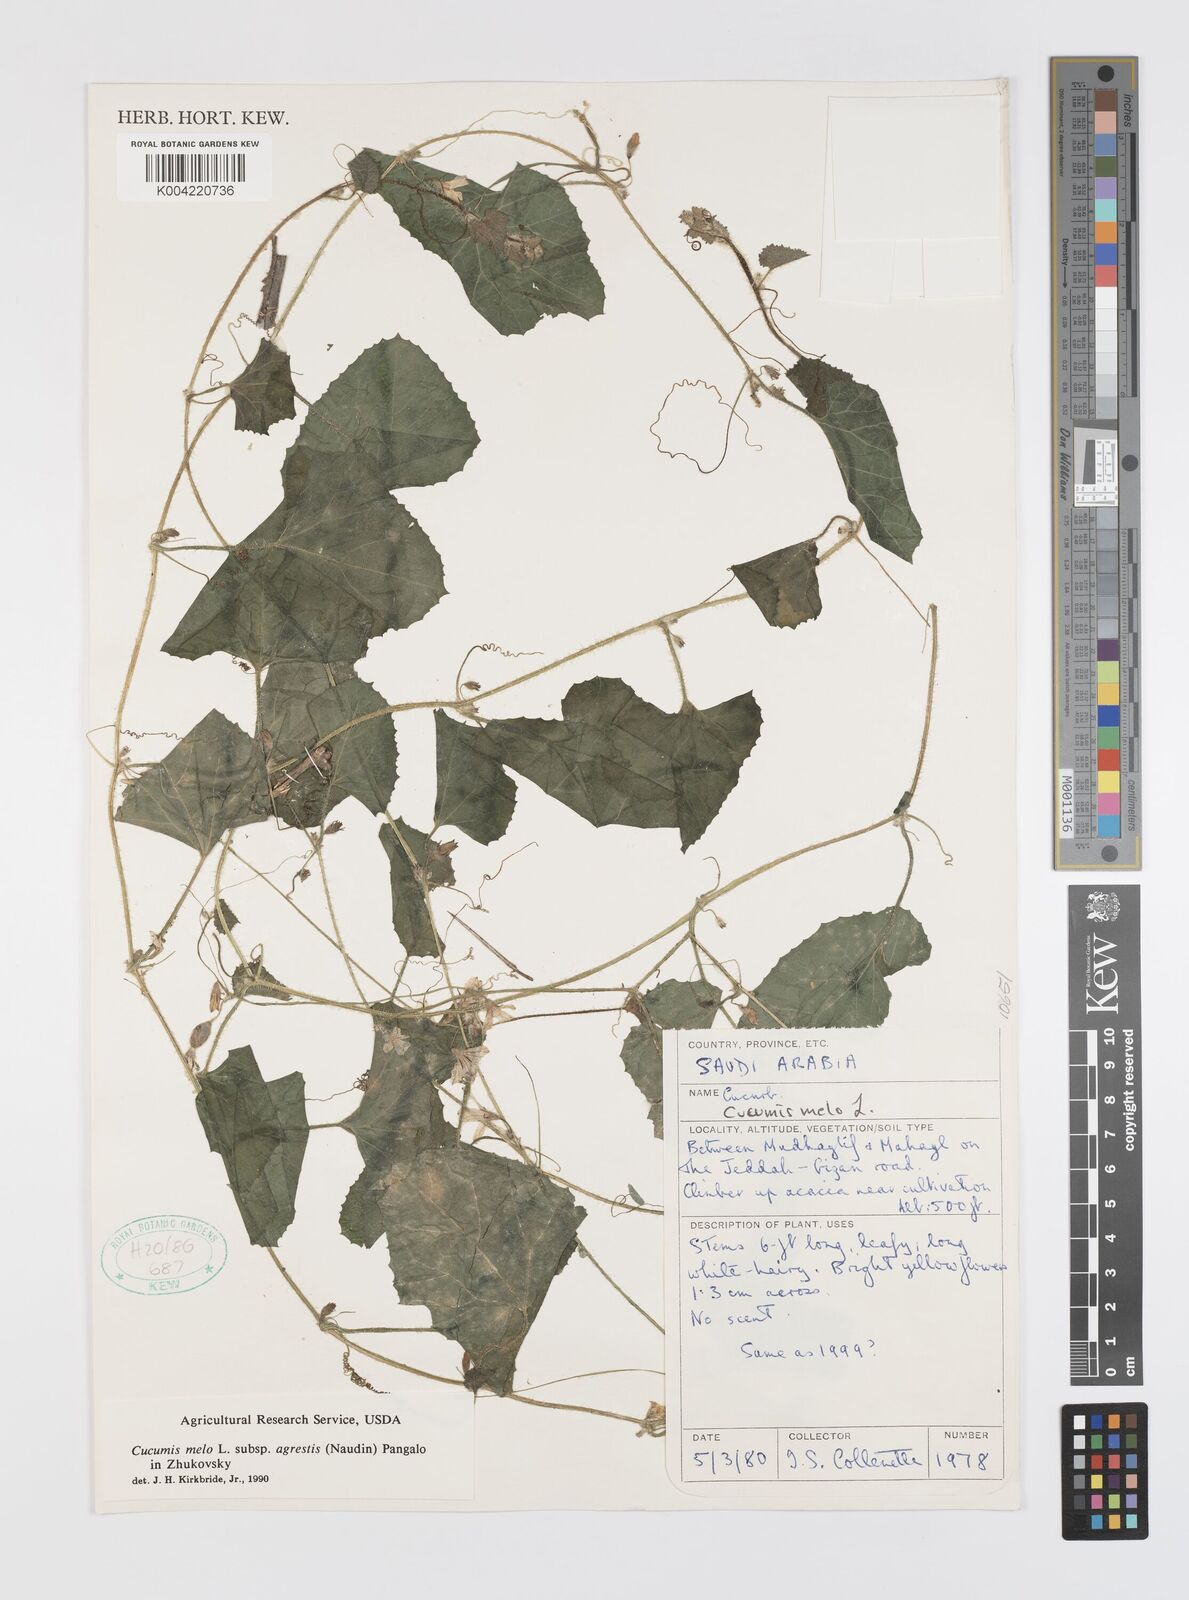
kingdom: Plantae
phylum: Tracheophyta
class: Magnoliopsida
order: Cucurbitales
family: Cucurbitaceae
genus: Cucumis
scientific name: Cucumis melo
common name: Melon
